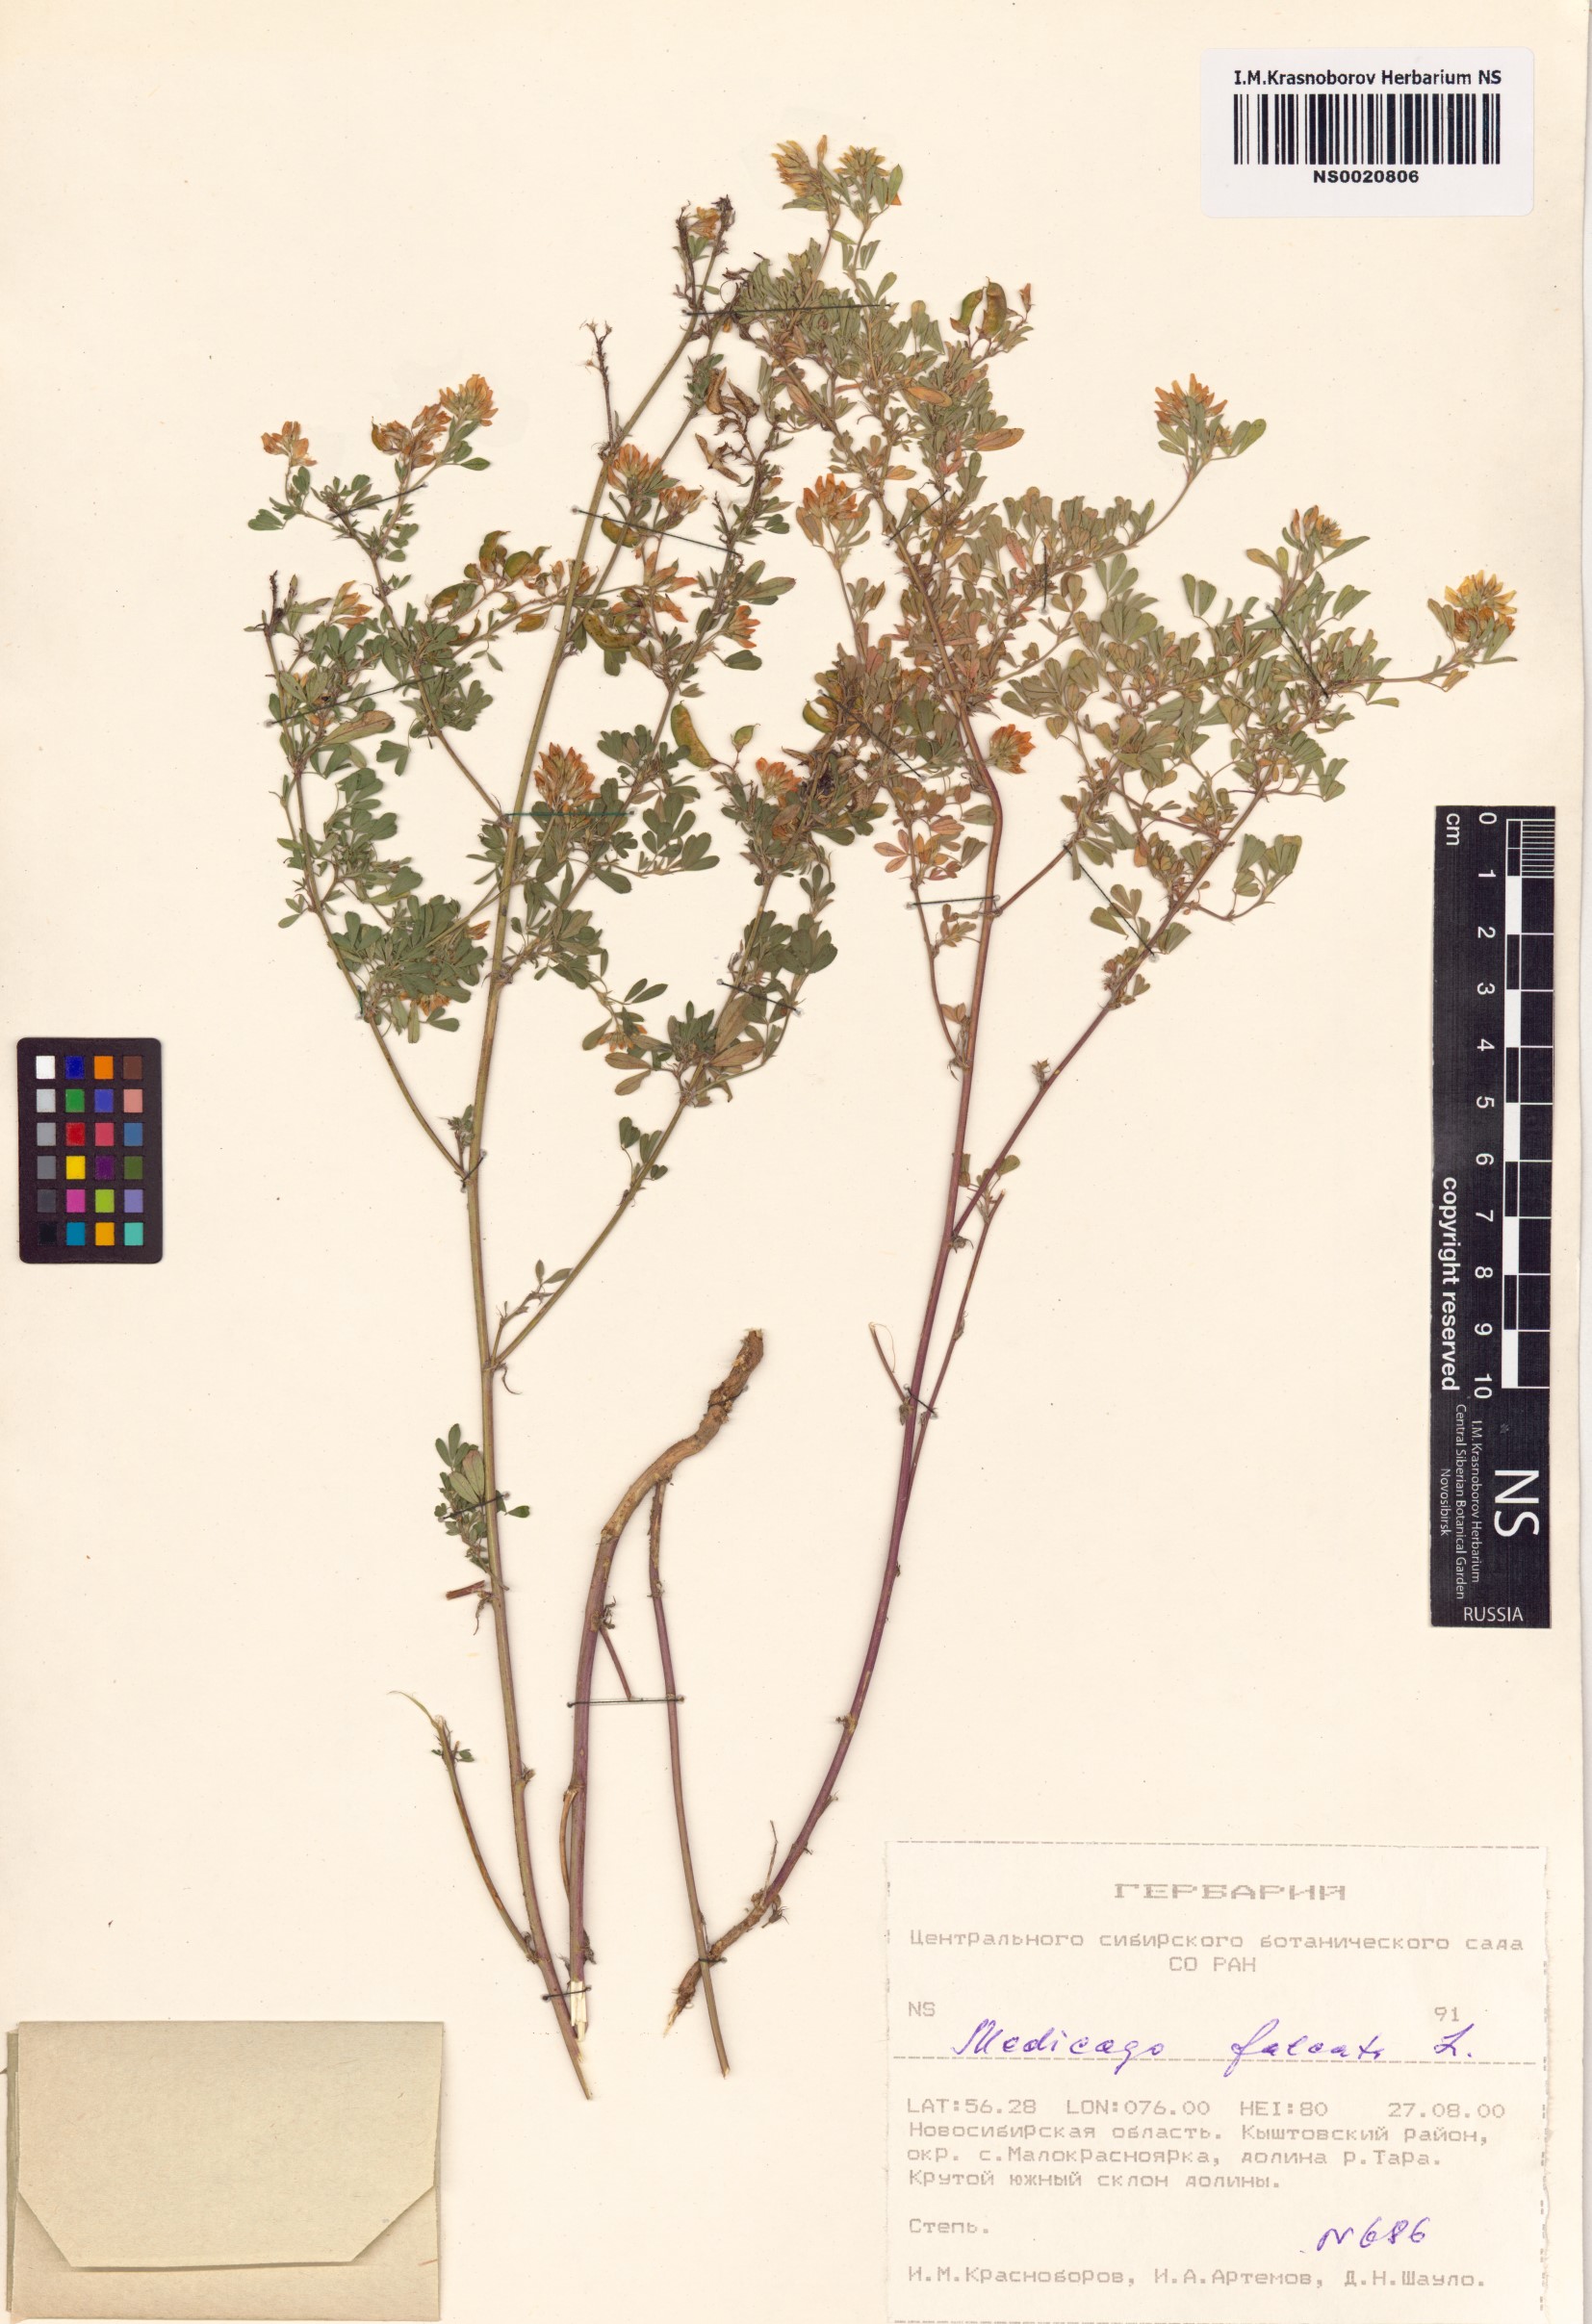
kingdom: Plantae
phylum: Tracheophyta
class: Magnoliopsida
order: Fabales
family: Fabaceae
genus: Medicago
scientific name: Medicago falcata
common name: Sickle medick
